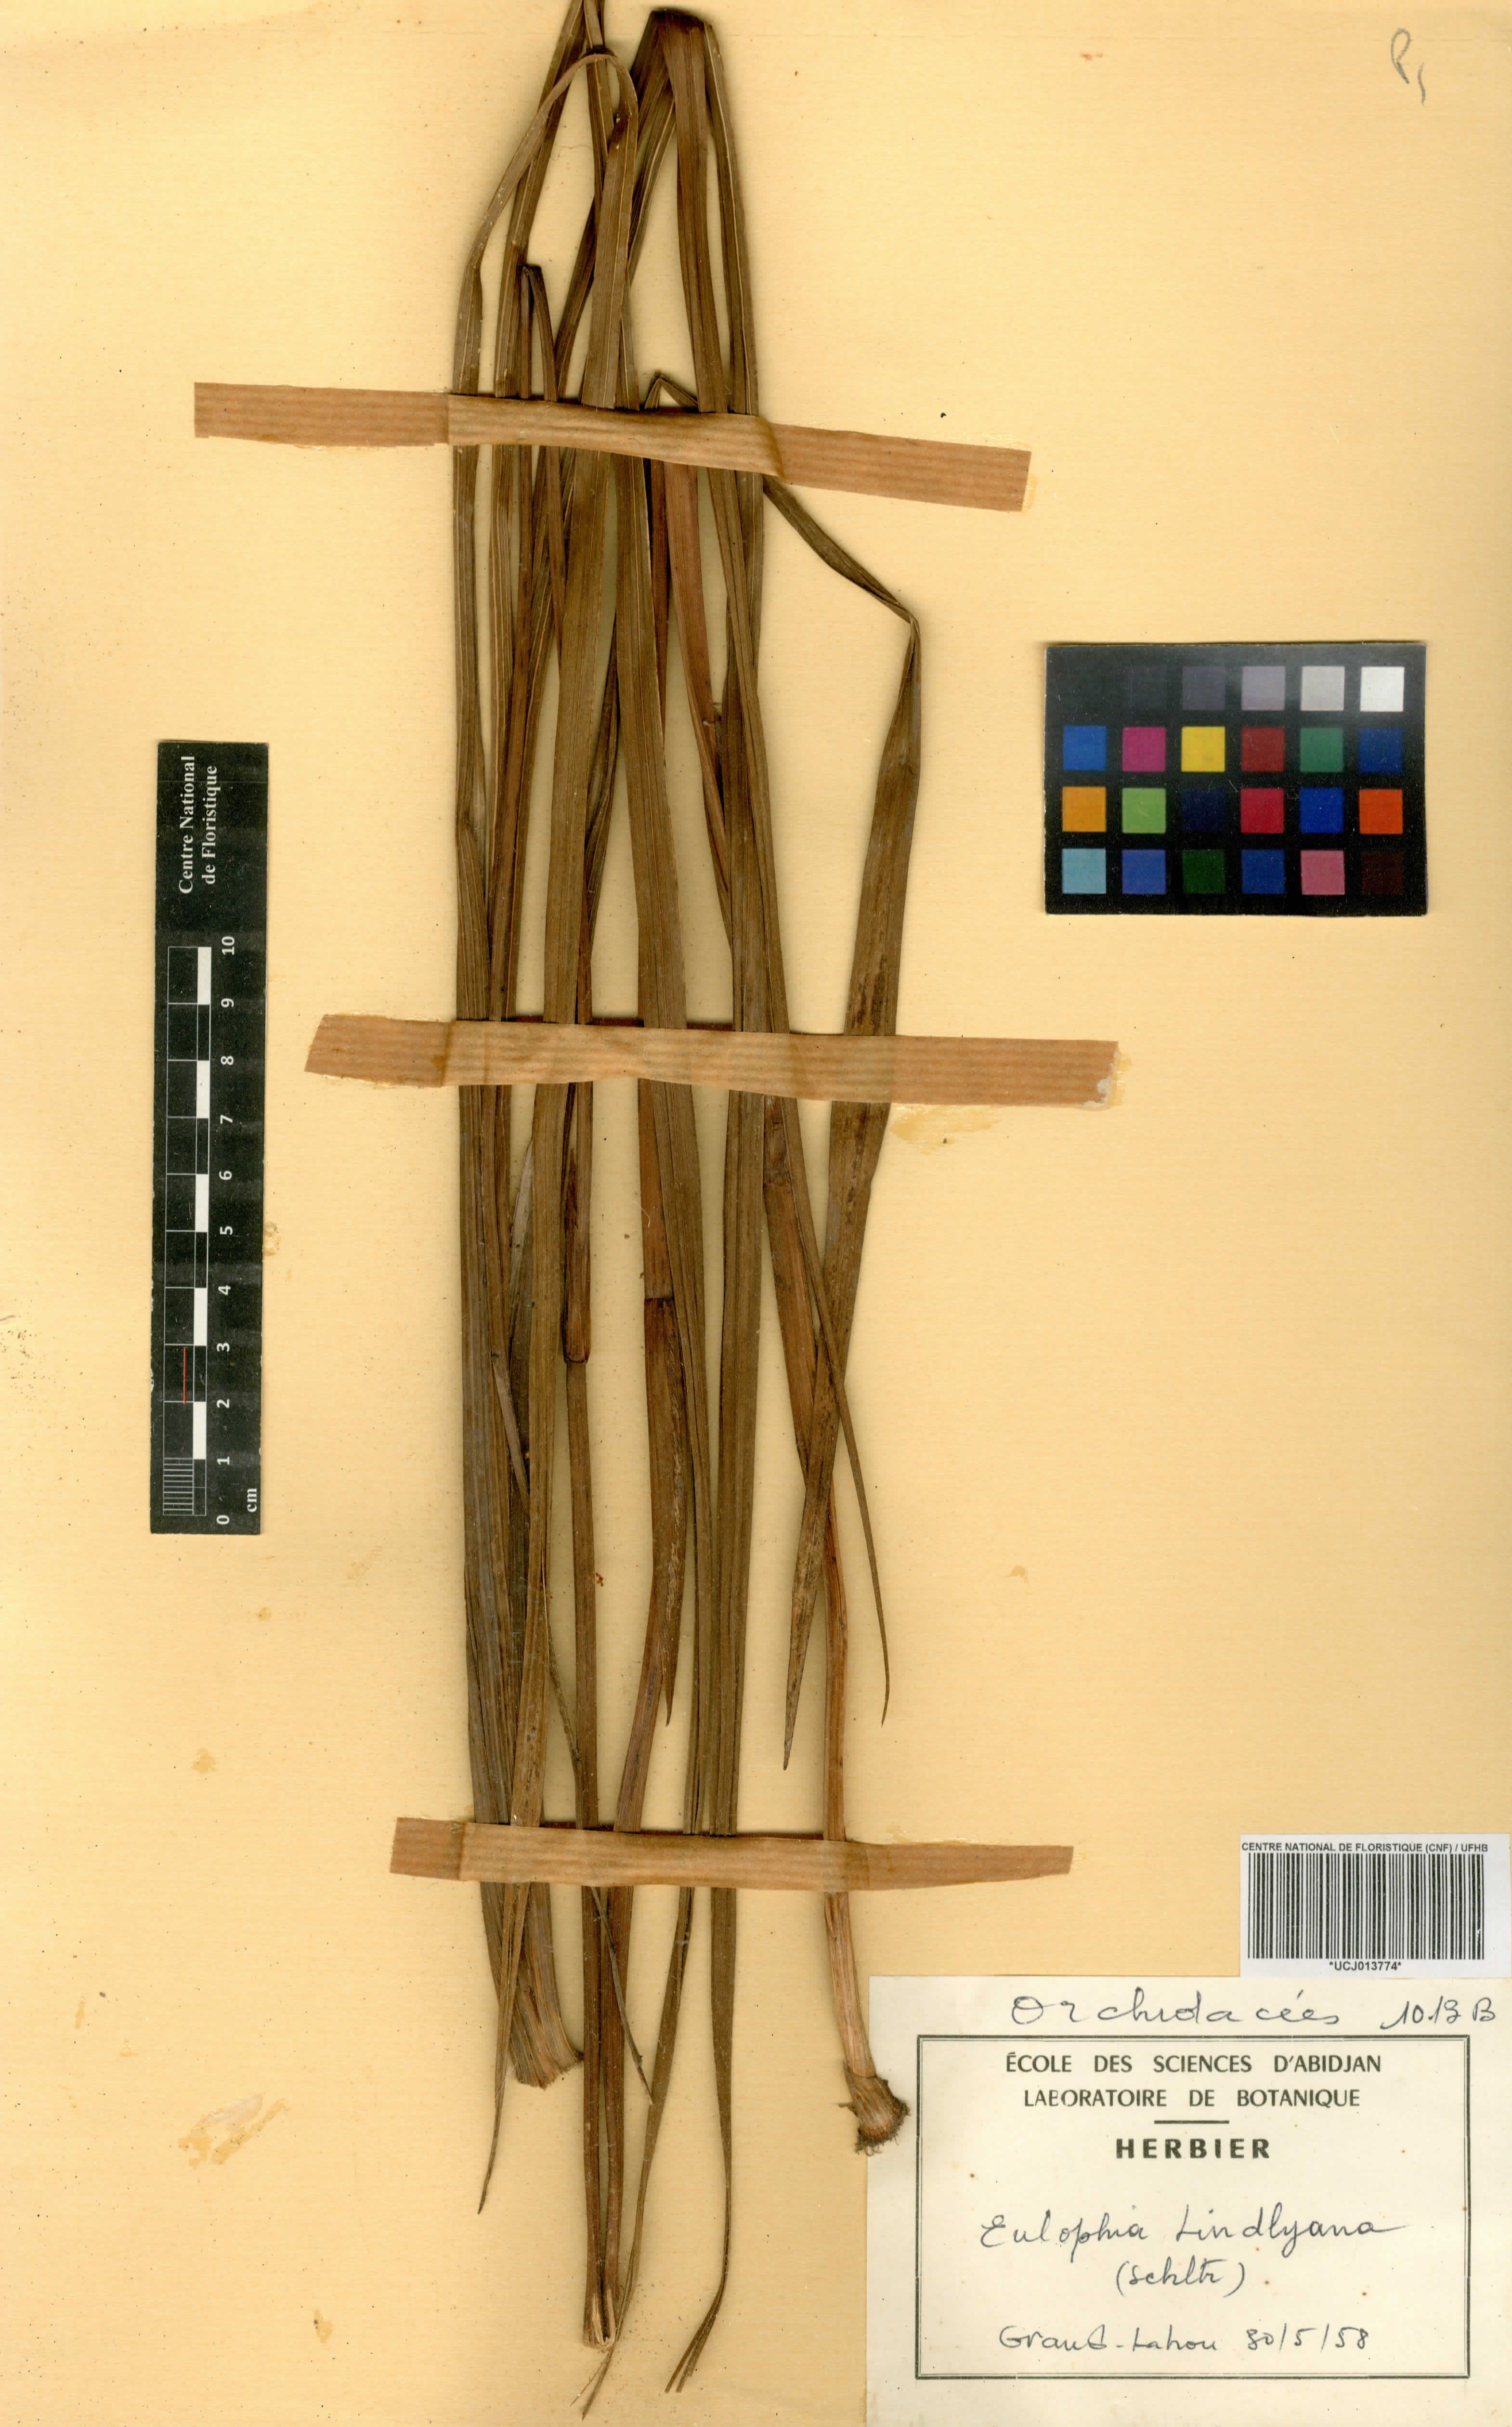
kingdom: Plantae
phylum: Tracheophyta
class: Liliopsida
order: Asparagales
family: Orchidaceae
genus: Eulophia
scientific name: Eulophia leonensis
